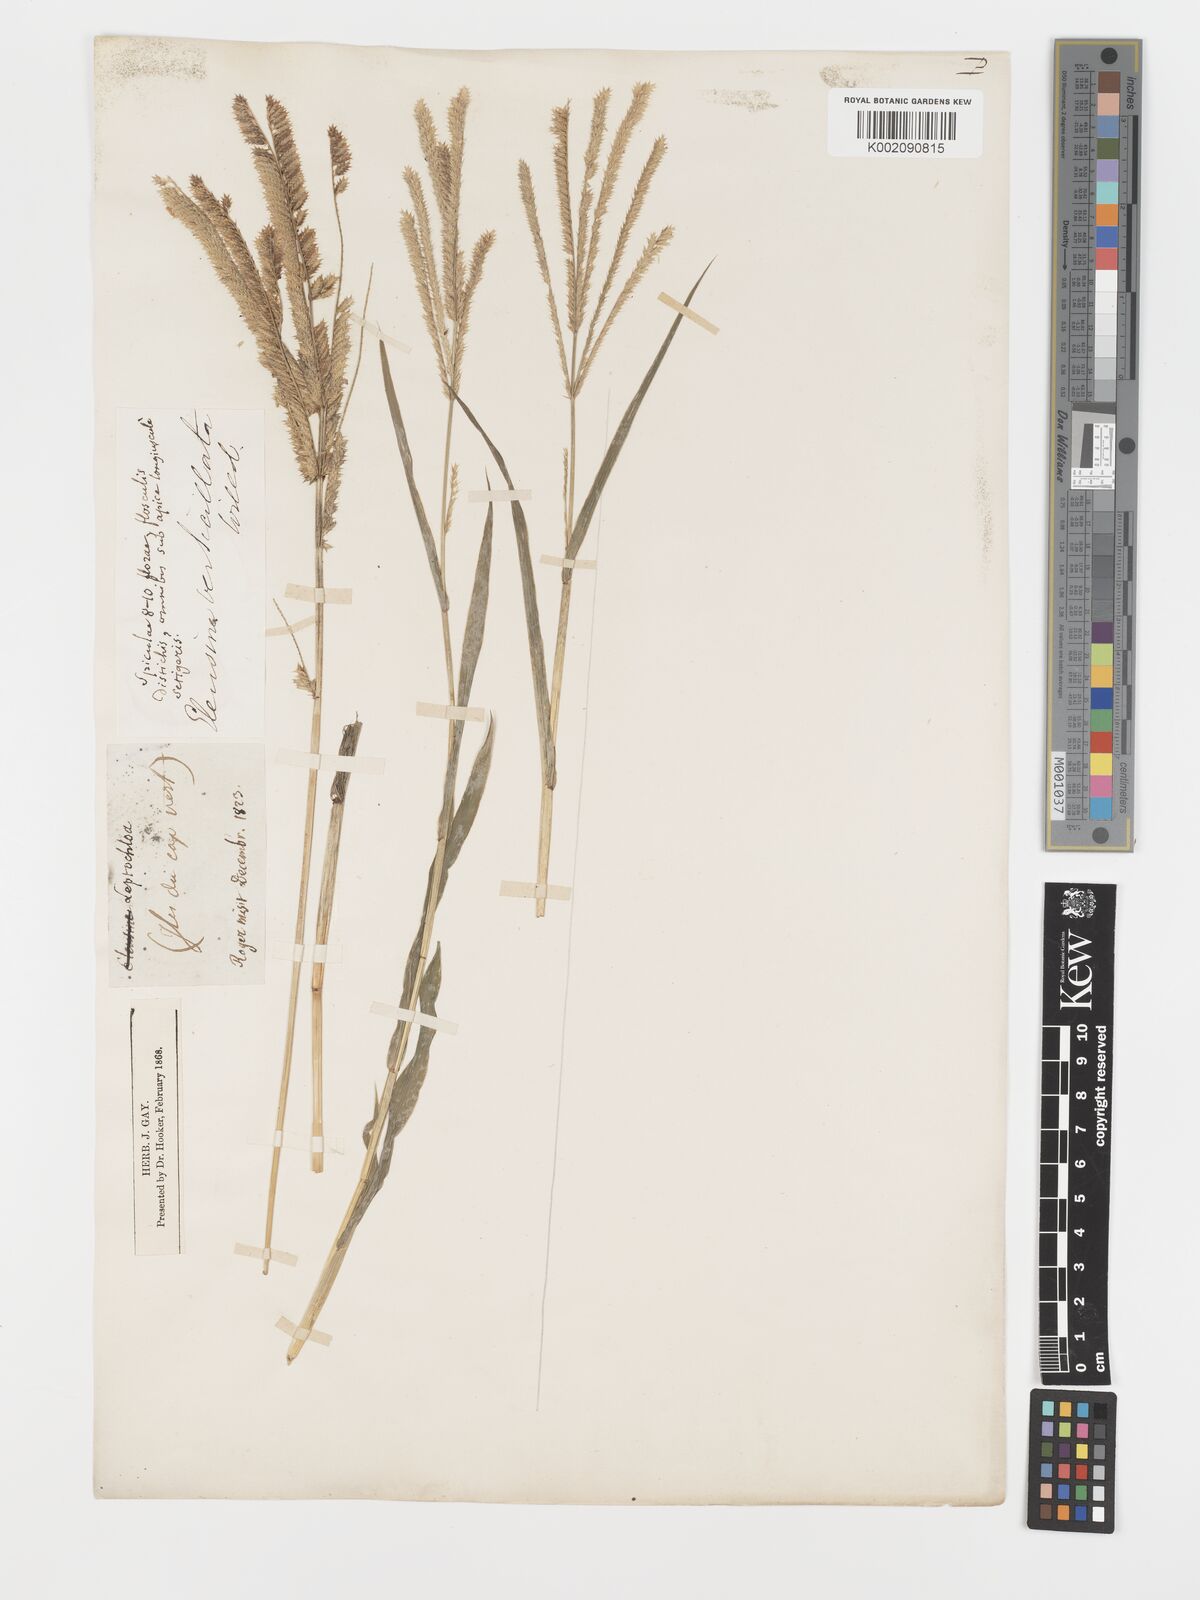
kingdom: Plantae
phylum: Tracheophyta
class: Liliopsida
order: Poales
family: Poaceae
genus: Acrachne
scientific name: Acrachne racemosa
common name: Goosegrass
